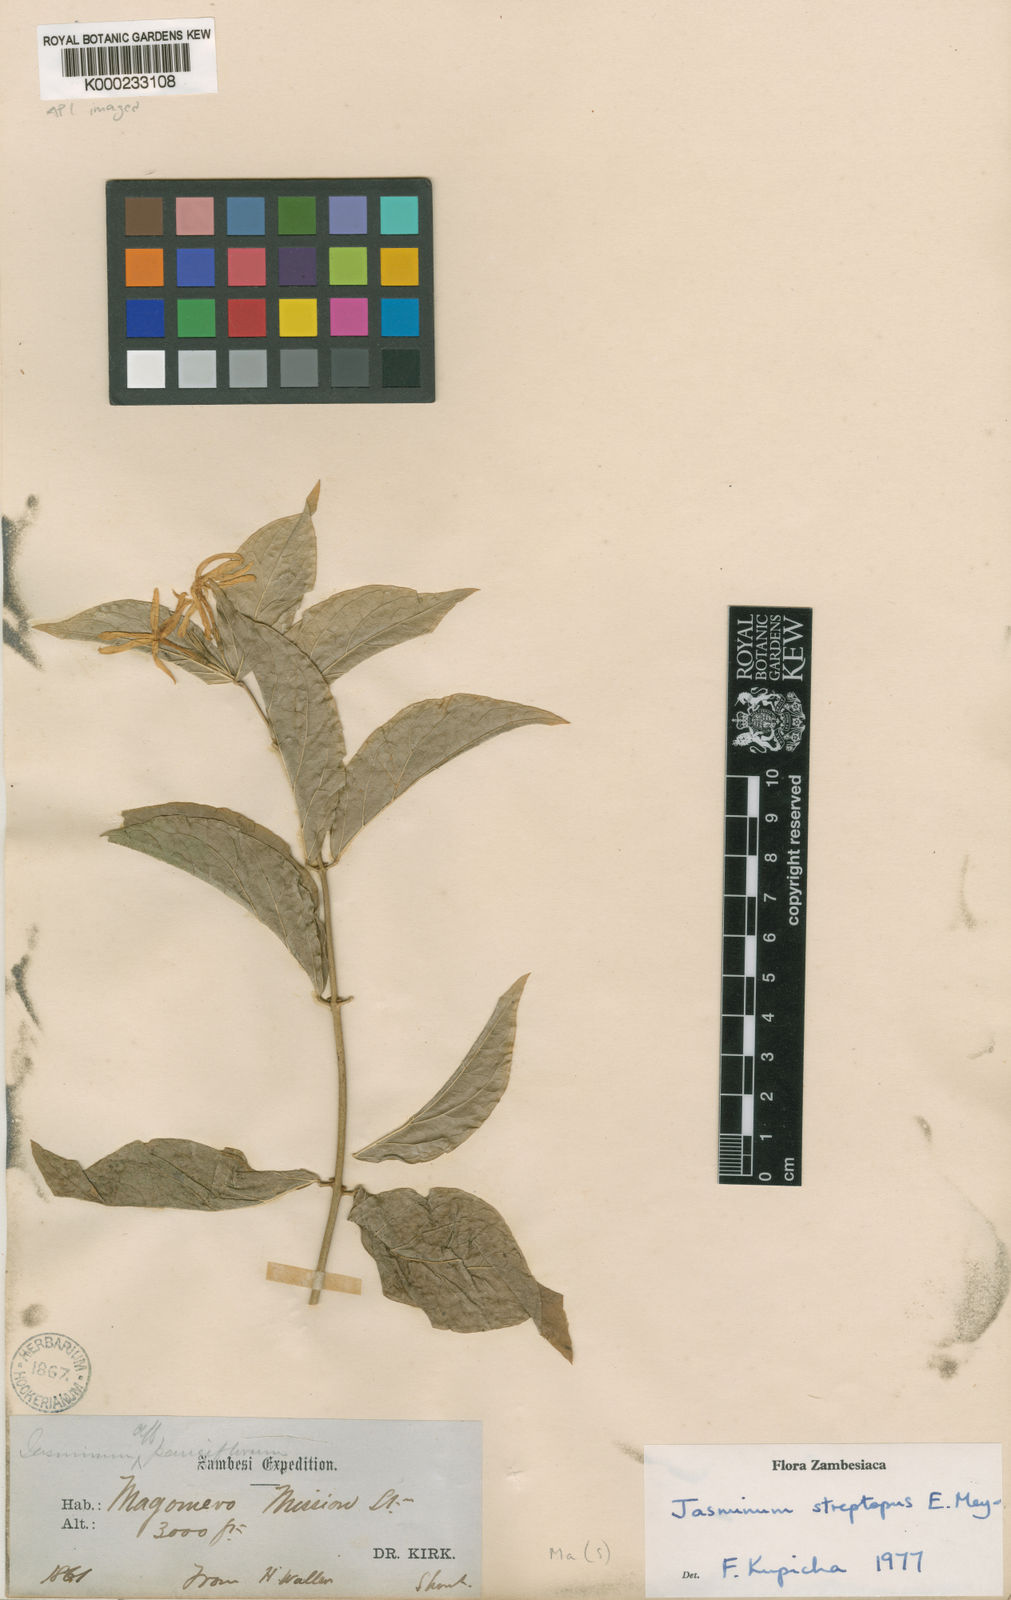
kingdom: Plantae
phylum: Tracheophyta
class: Magnoliopsida
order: Lamiales
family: Oleaceae
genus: Jasminum
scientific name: Jasminum
